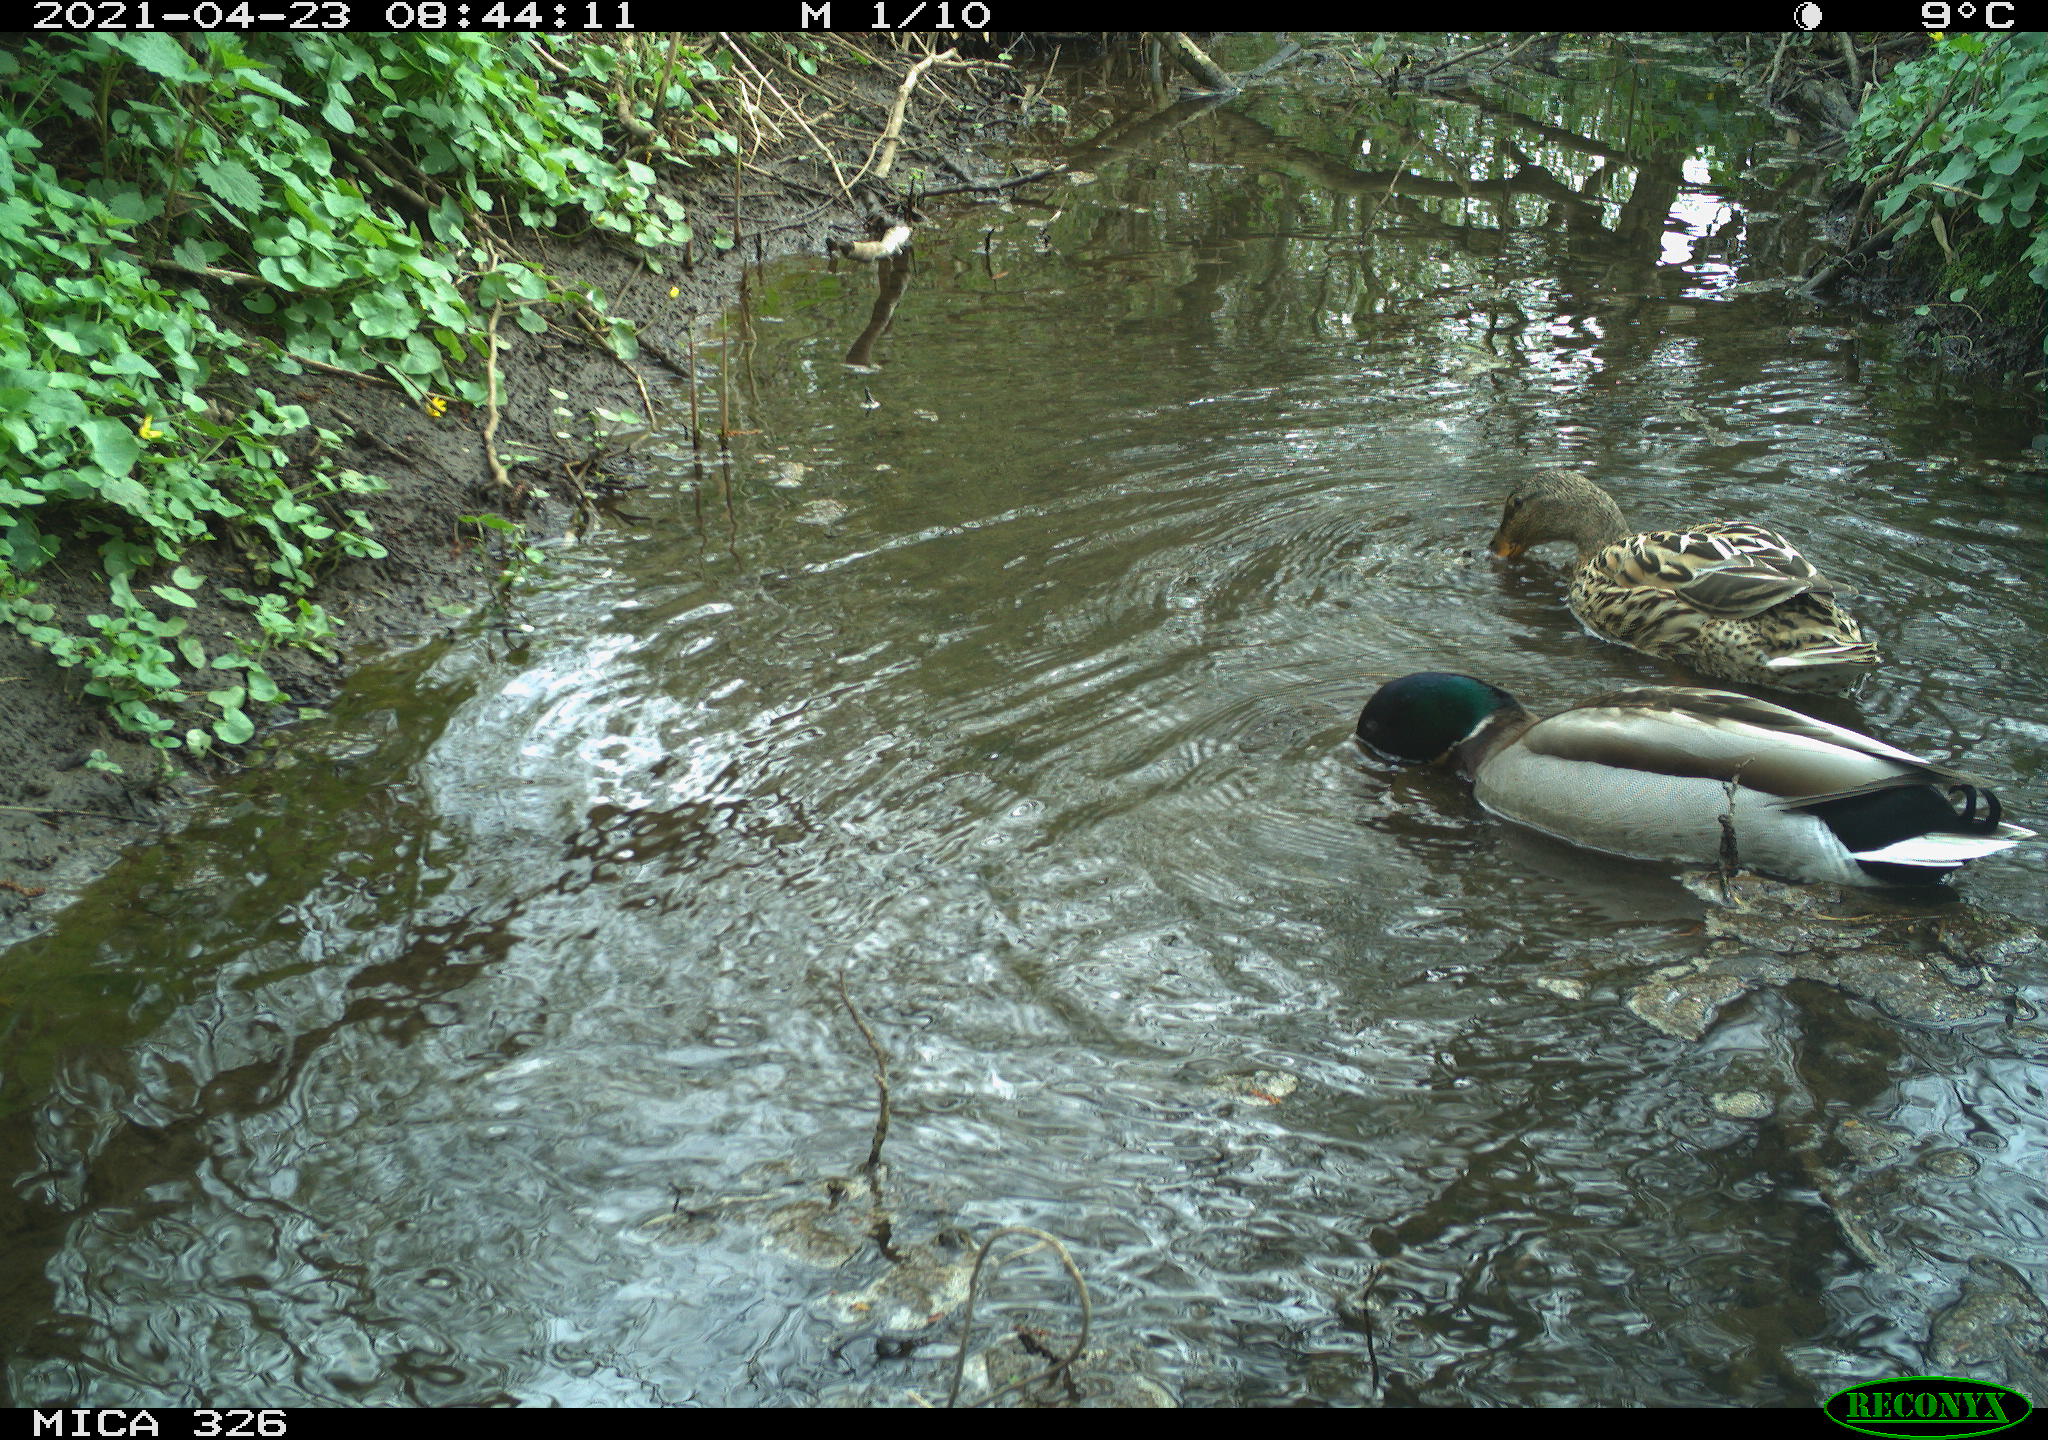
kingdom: Animalia
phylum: Chordata
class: Aves
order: Anseriformes
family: Anatidae
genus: Anas
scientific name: Anas platyrhynchos
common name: Mallard
